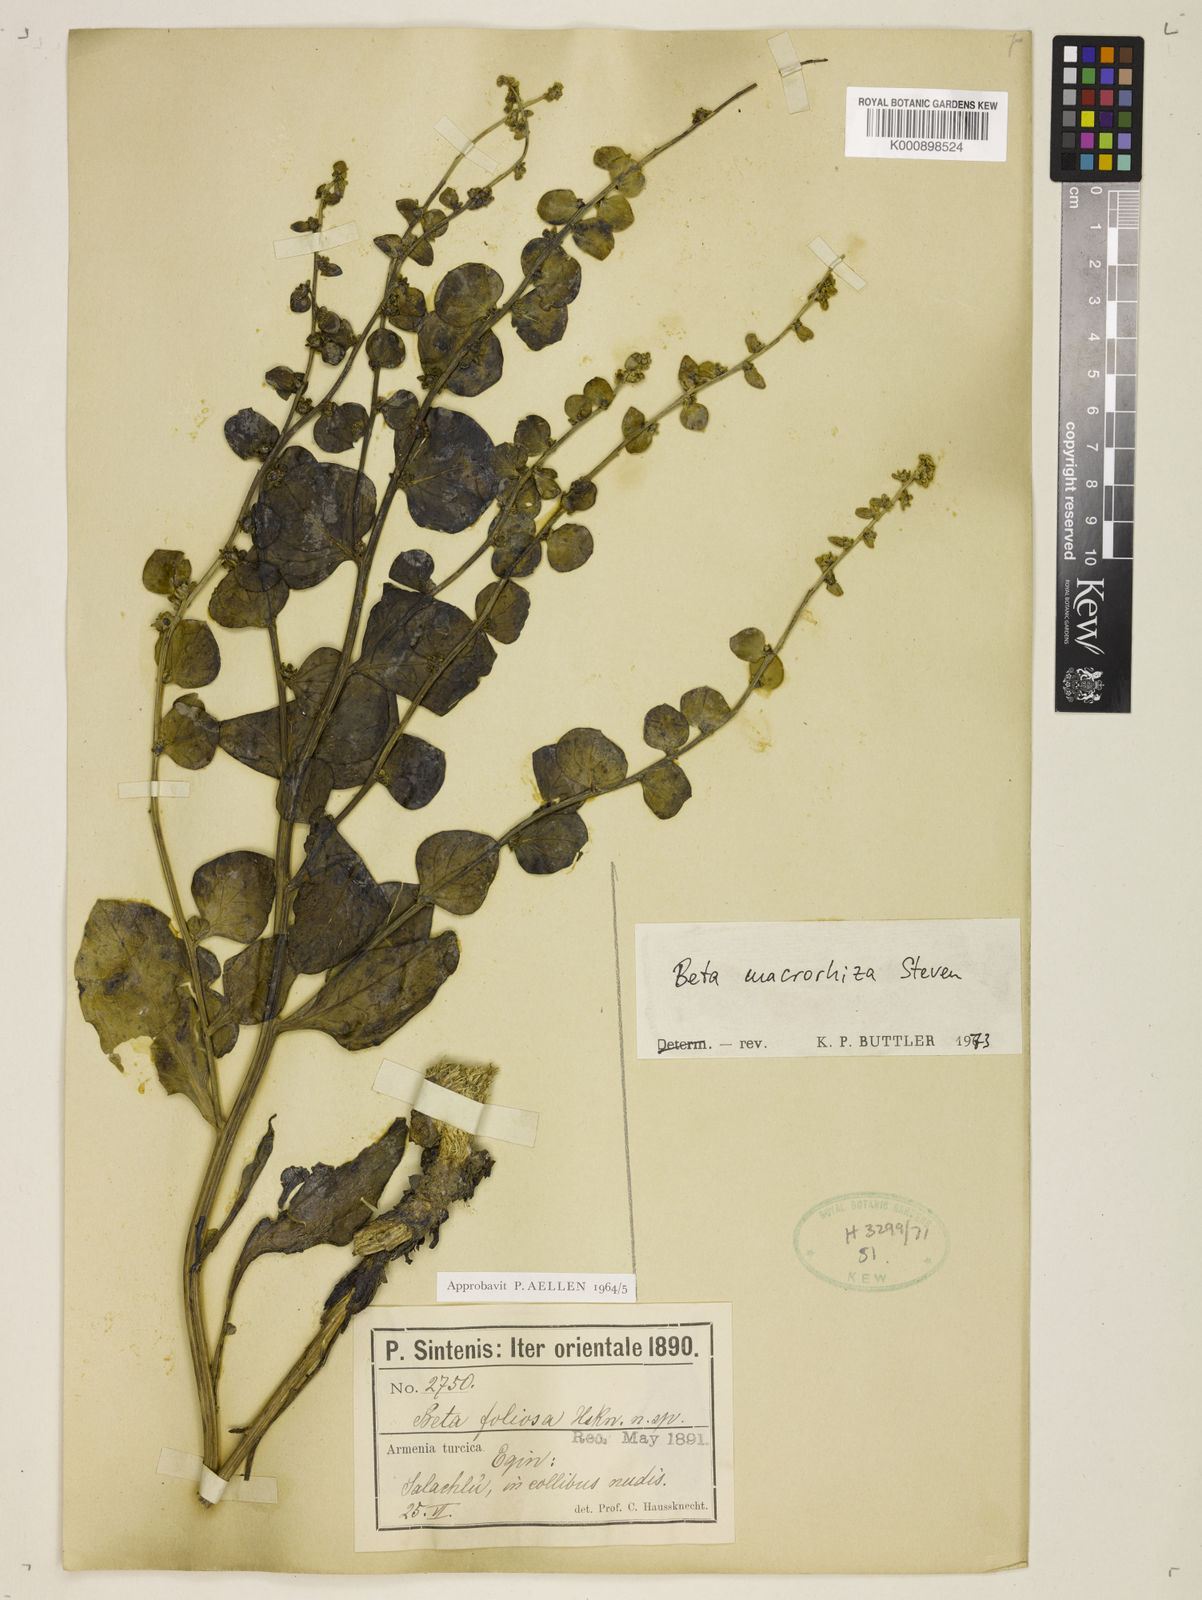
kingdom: Plantae
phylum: Tracheophyta
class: Magnoliopsida
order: Caryophyllales
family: Amaranthaceae
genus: Beta
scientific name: Beta macrorhiza
